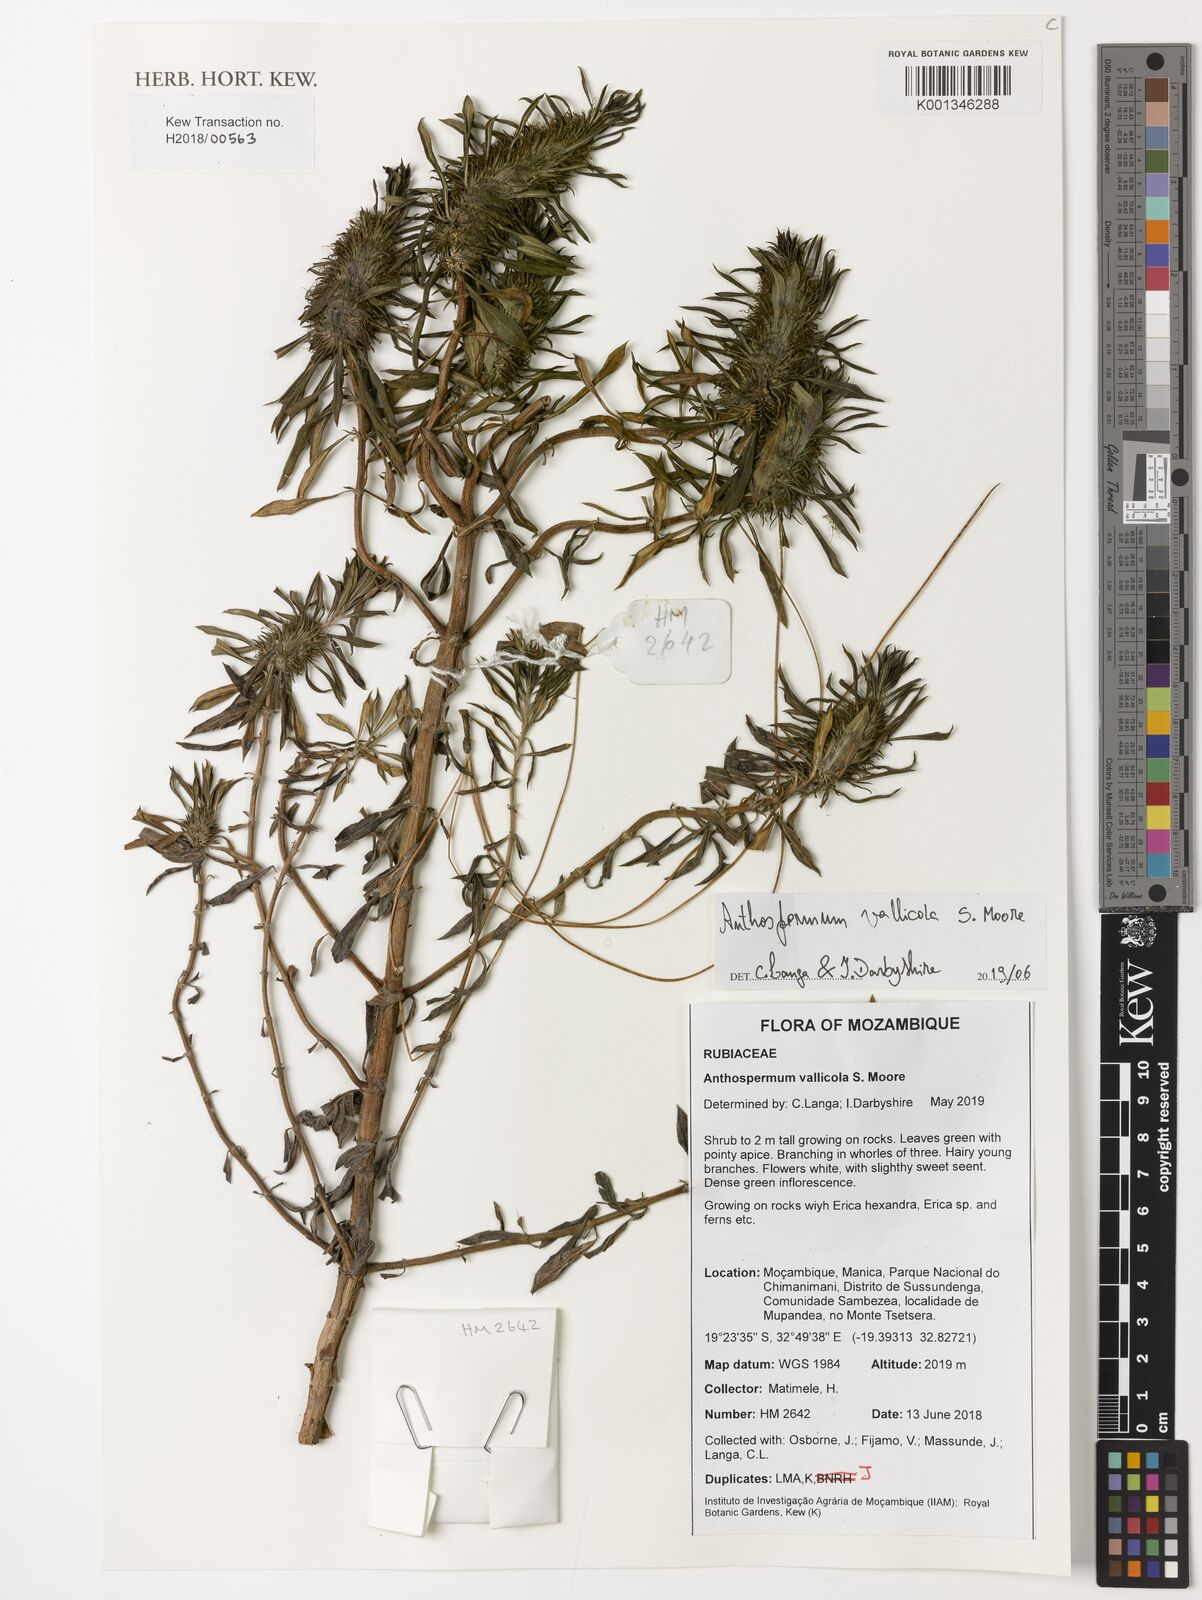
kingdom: Plantae
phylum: Tracheophyta
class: Magnoliopsida
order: Gentianales
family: Rubiaceae
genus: Anthospermum
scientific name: Anthospermum vallicola
